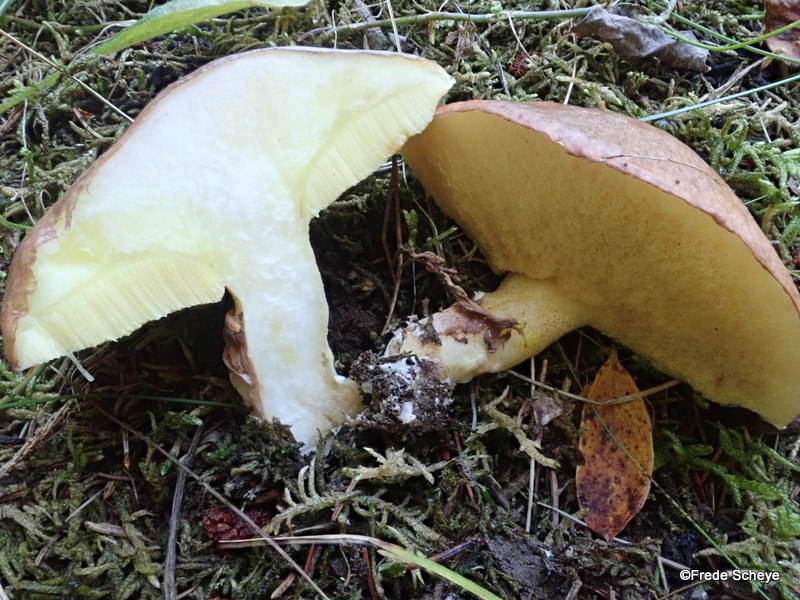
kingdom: Fungi
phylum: Basidiomycota
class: Agaricomycetes
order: Boletales
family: Suillaceae
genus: Suillus
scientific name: Suillus luteus
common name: brungul slimrørhat
